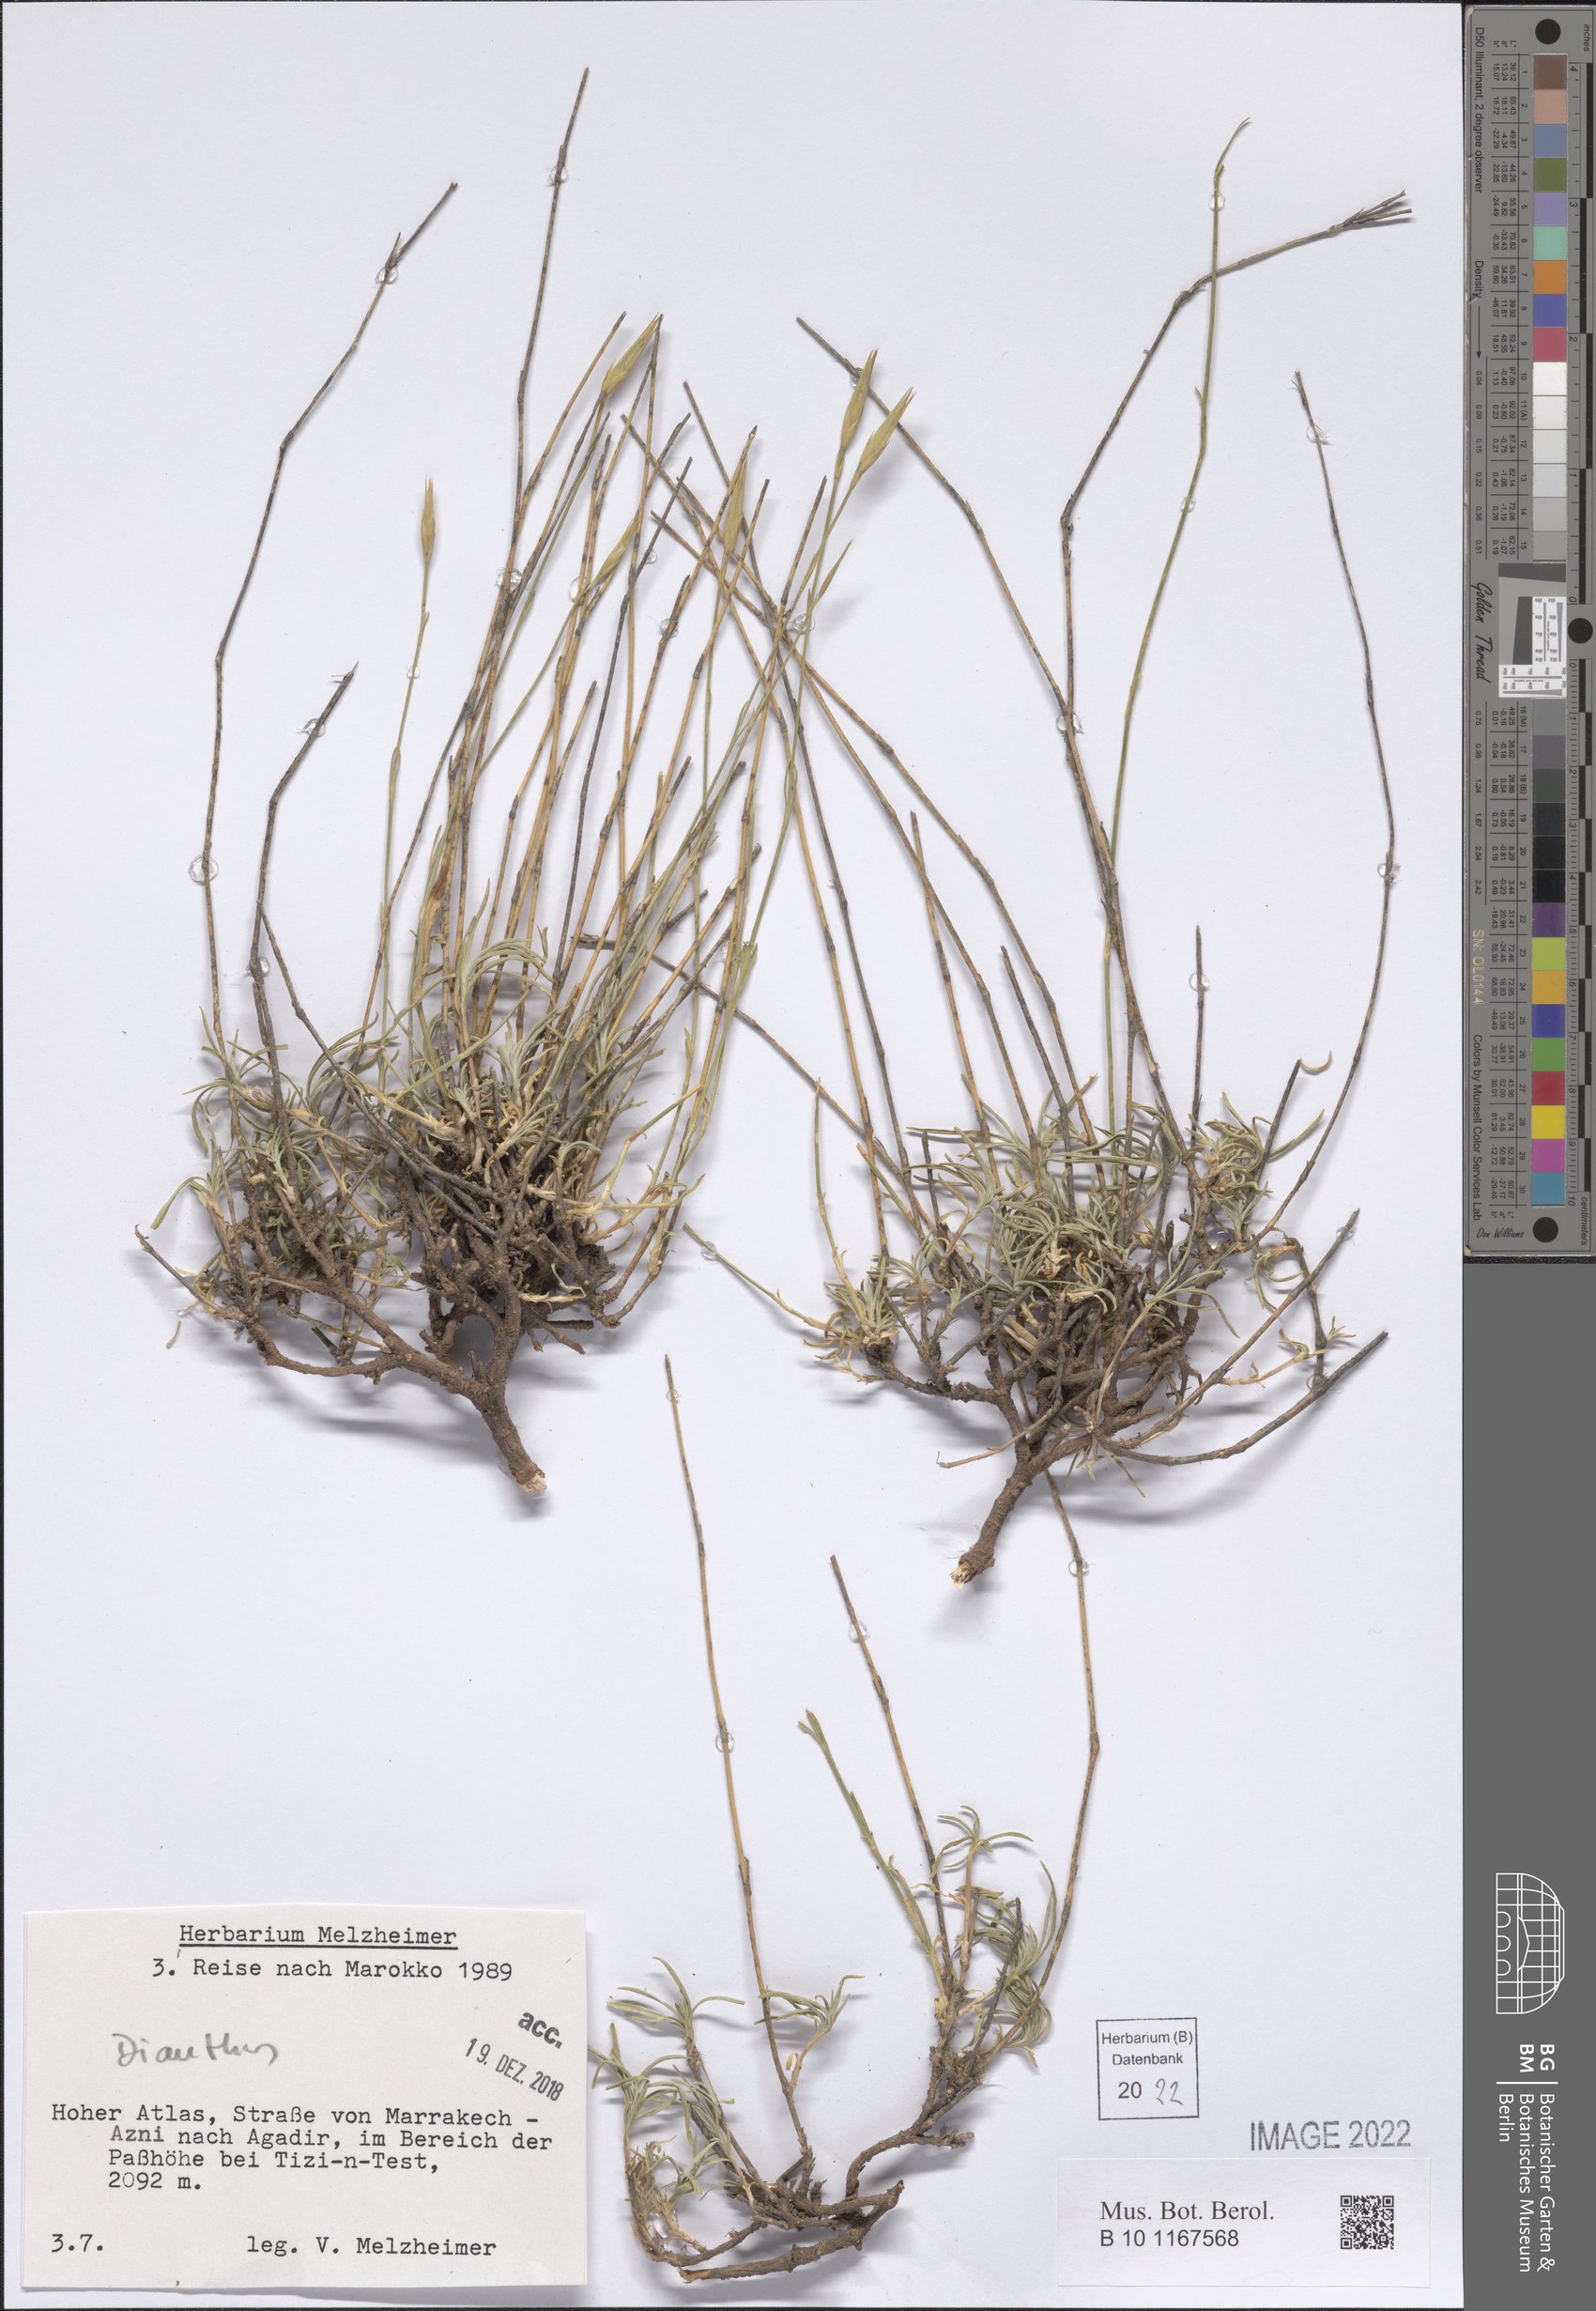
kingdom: Plantae
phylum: Tracheophyta
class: Magnoliopsida
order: Caryophyllales
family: Caryophyllaceae
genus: Dianthus
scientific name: Dianthus
